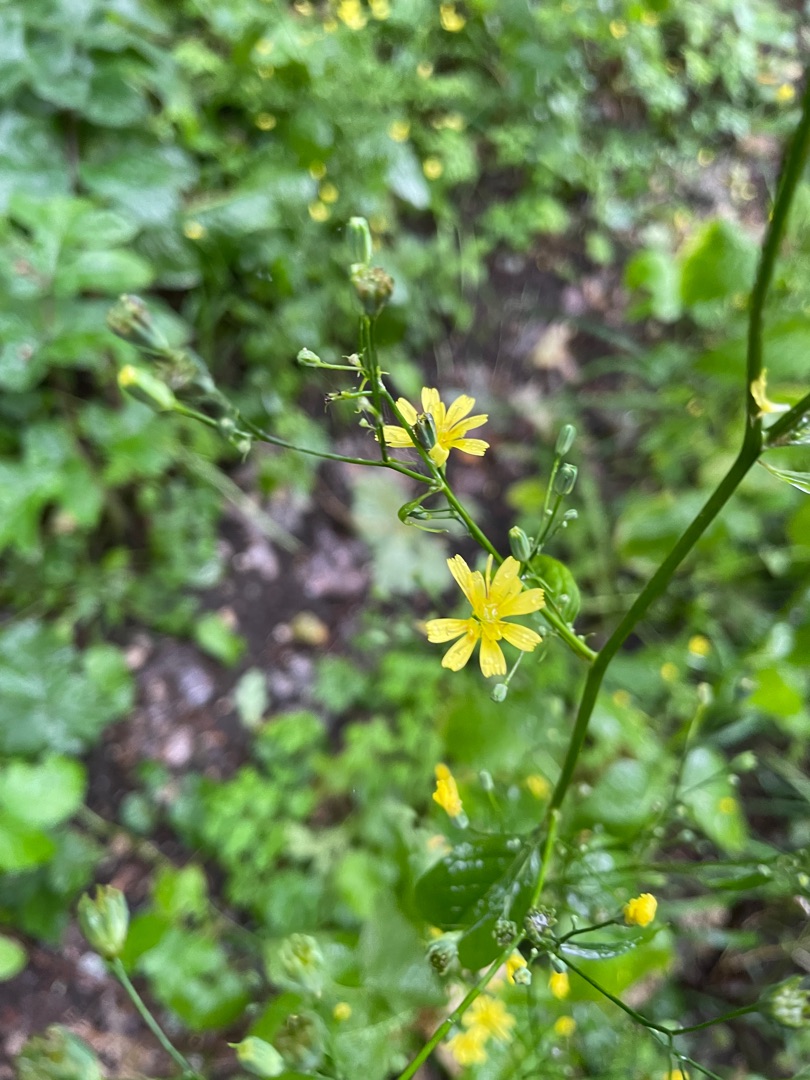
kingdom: Plantae
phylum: Tracheophyta
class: Magnoliopsida
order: Asterales
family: Asteraceae
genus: Lapsana
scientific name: Lapsana communis
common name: Haremad
